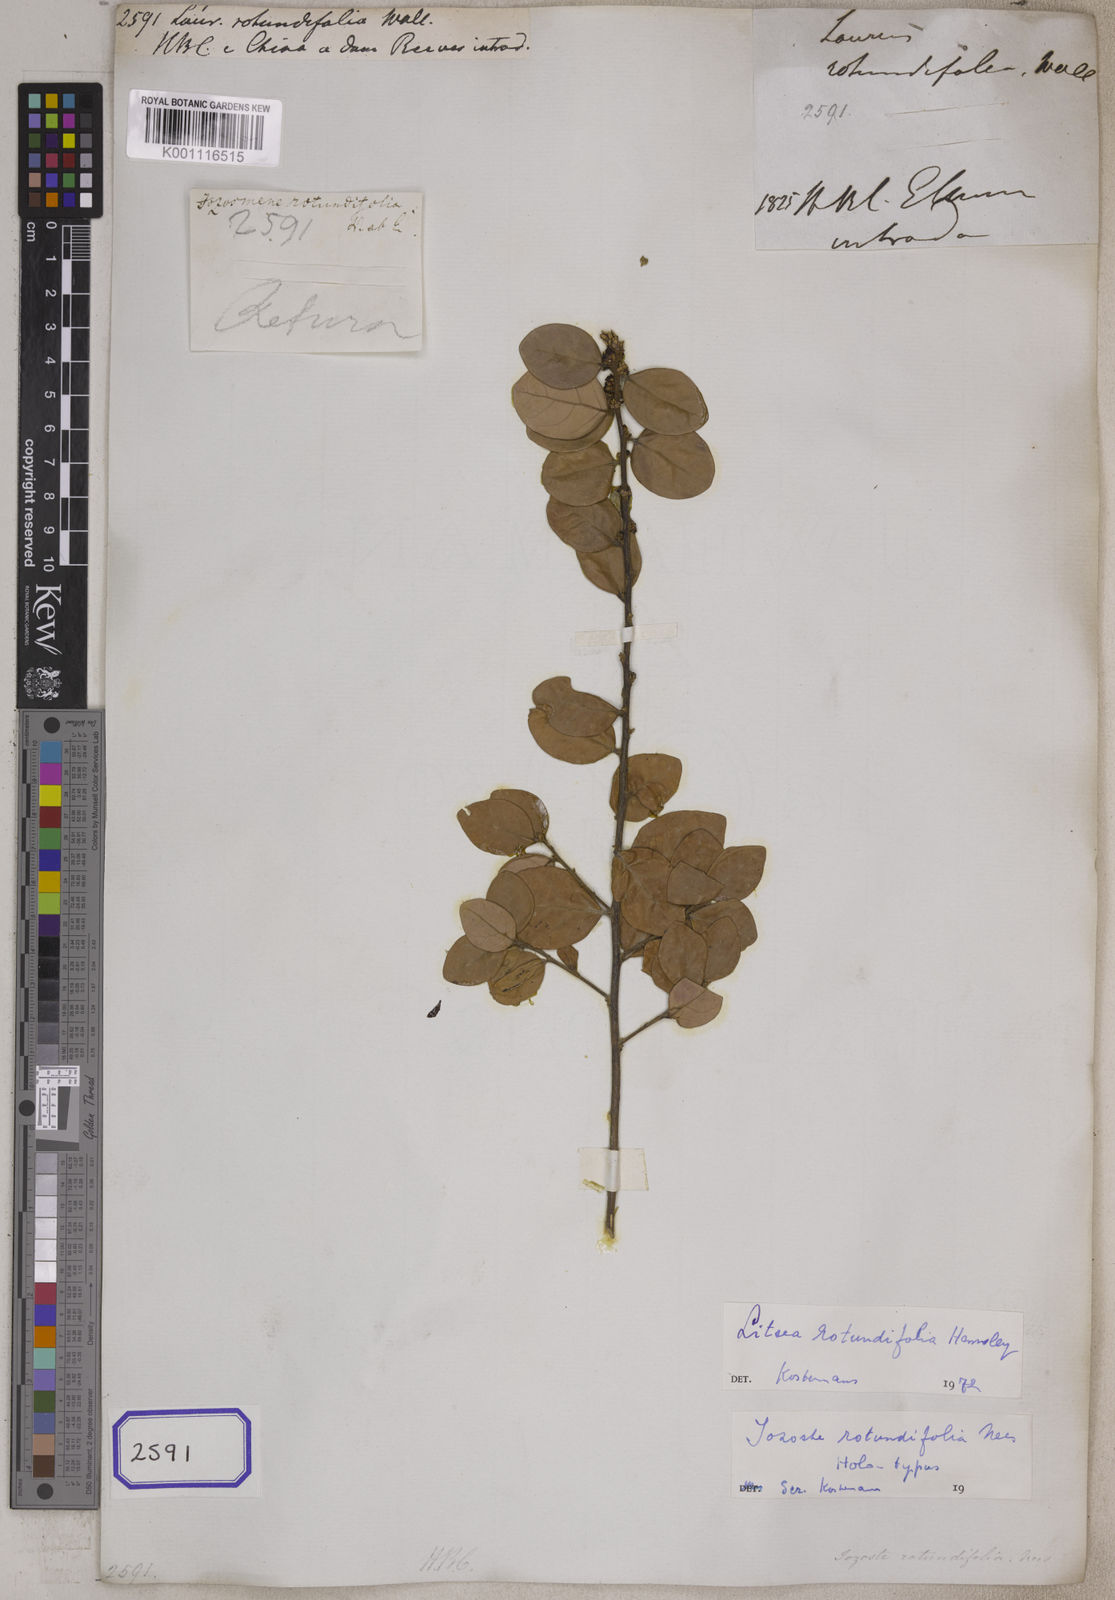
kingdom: Plantae
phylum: Tracheophyta
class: Magnoliopsida
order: Laurales
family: Lauraceae
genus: Laurus
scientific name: Laurus rotundifolia
